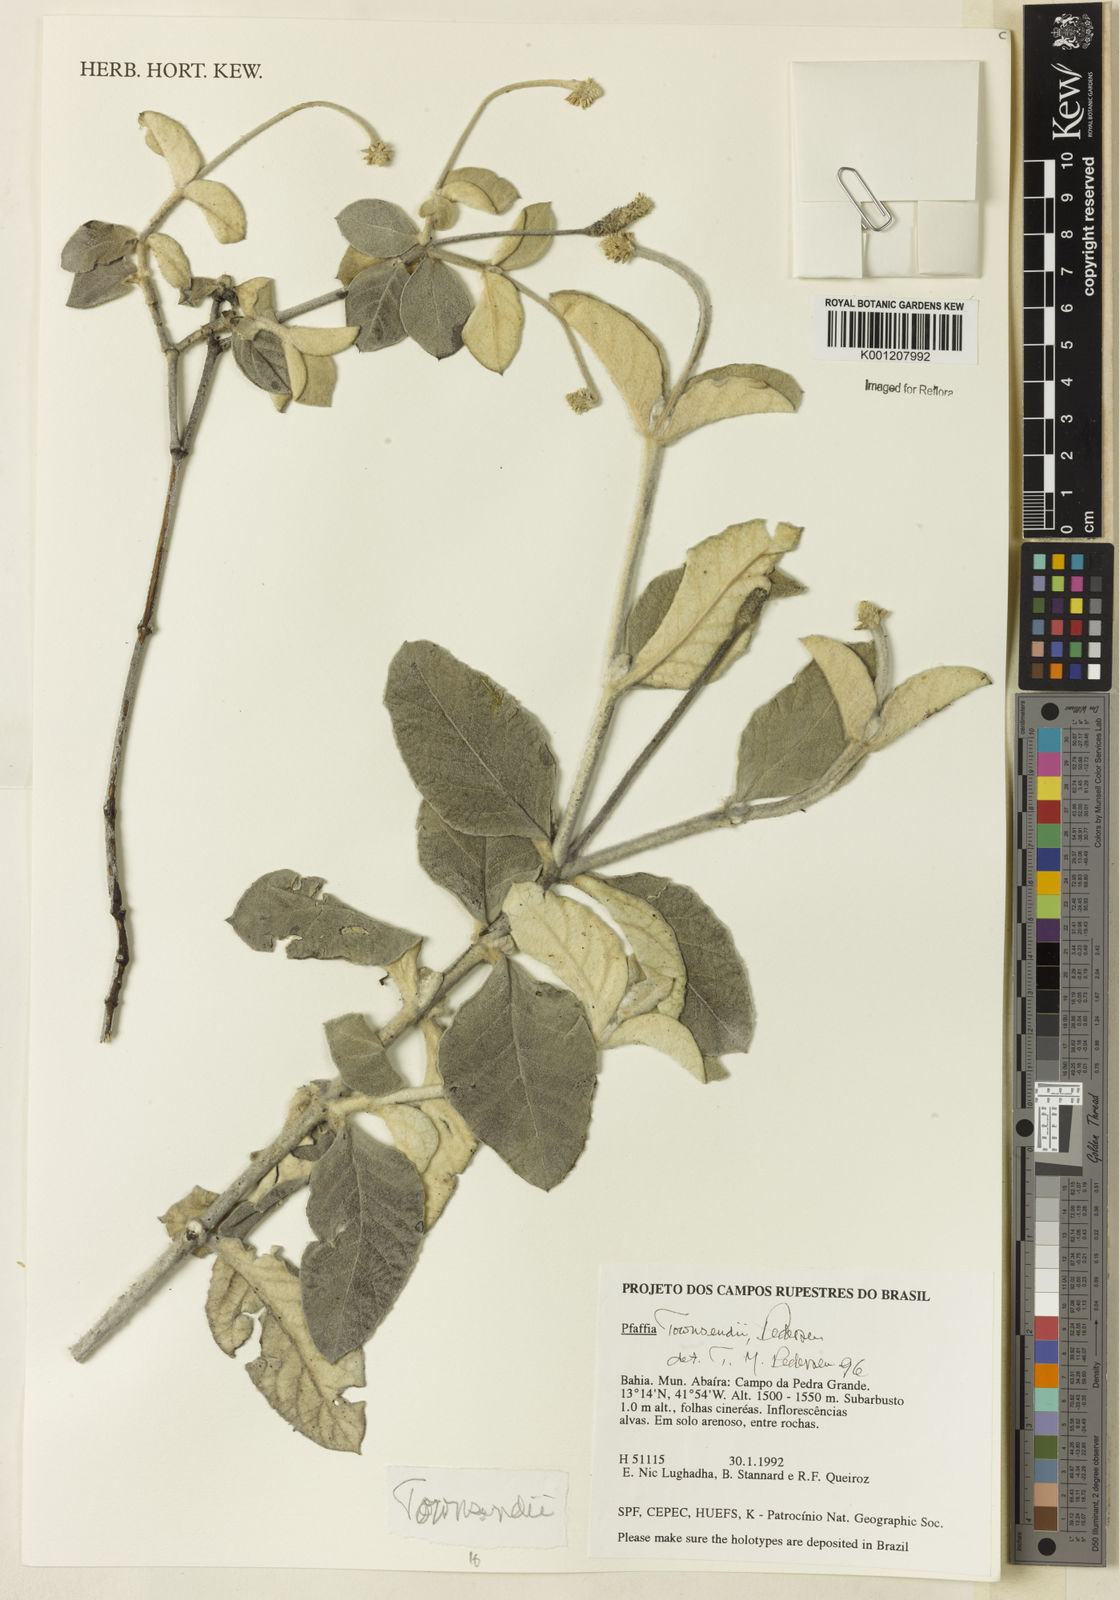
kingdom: Plantae
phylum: Tracheophyta
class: Magnoliopsida
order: Caryophyllales
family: Amaranthaceae
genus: Pfaffia
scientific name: Pfaffia townsendii
